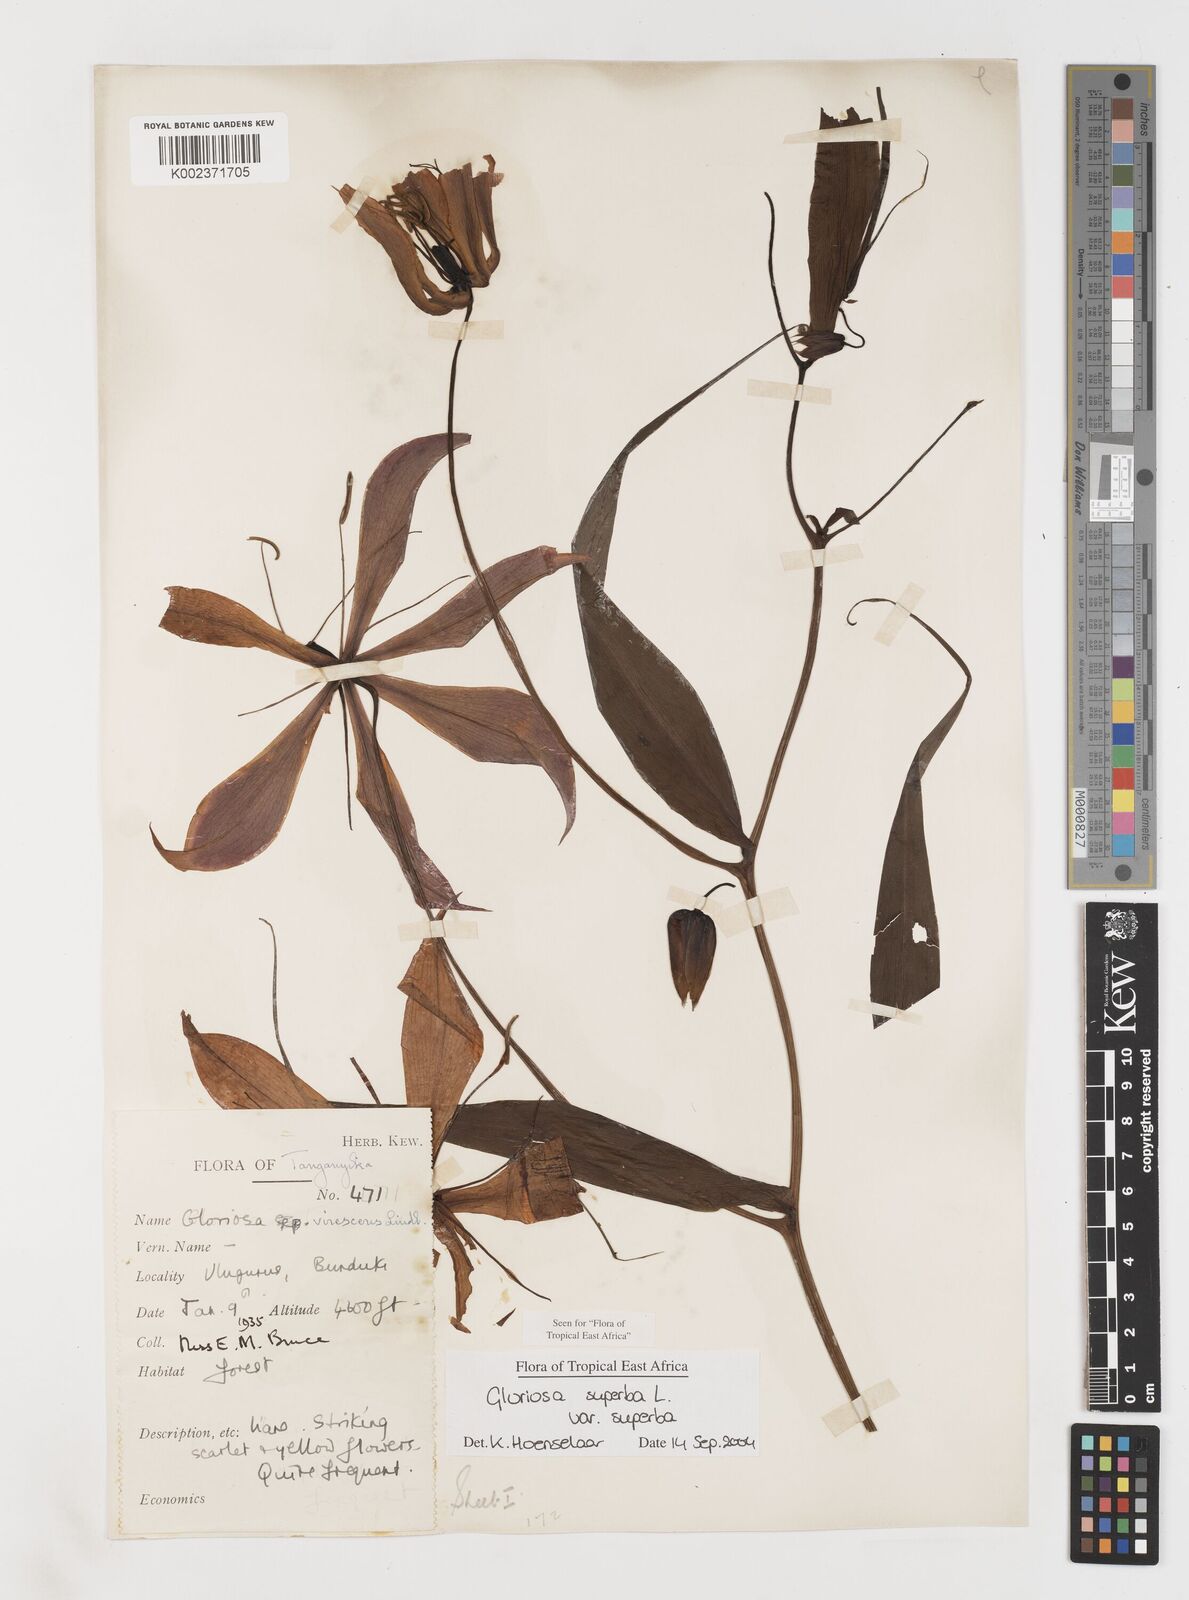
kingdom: Plantae
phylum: Tracheophyta
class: Liliopsida
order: Liliales
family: Colchicaceae
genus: Gloriosa
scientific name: Gloriosa simplex
